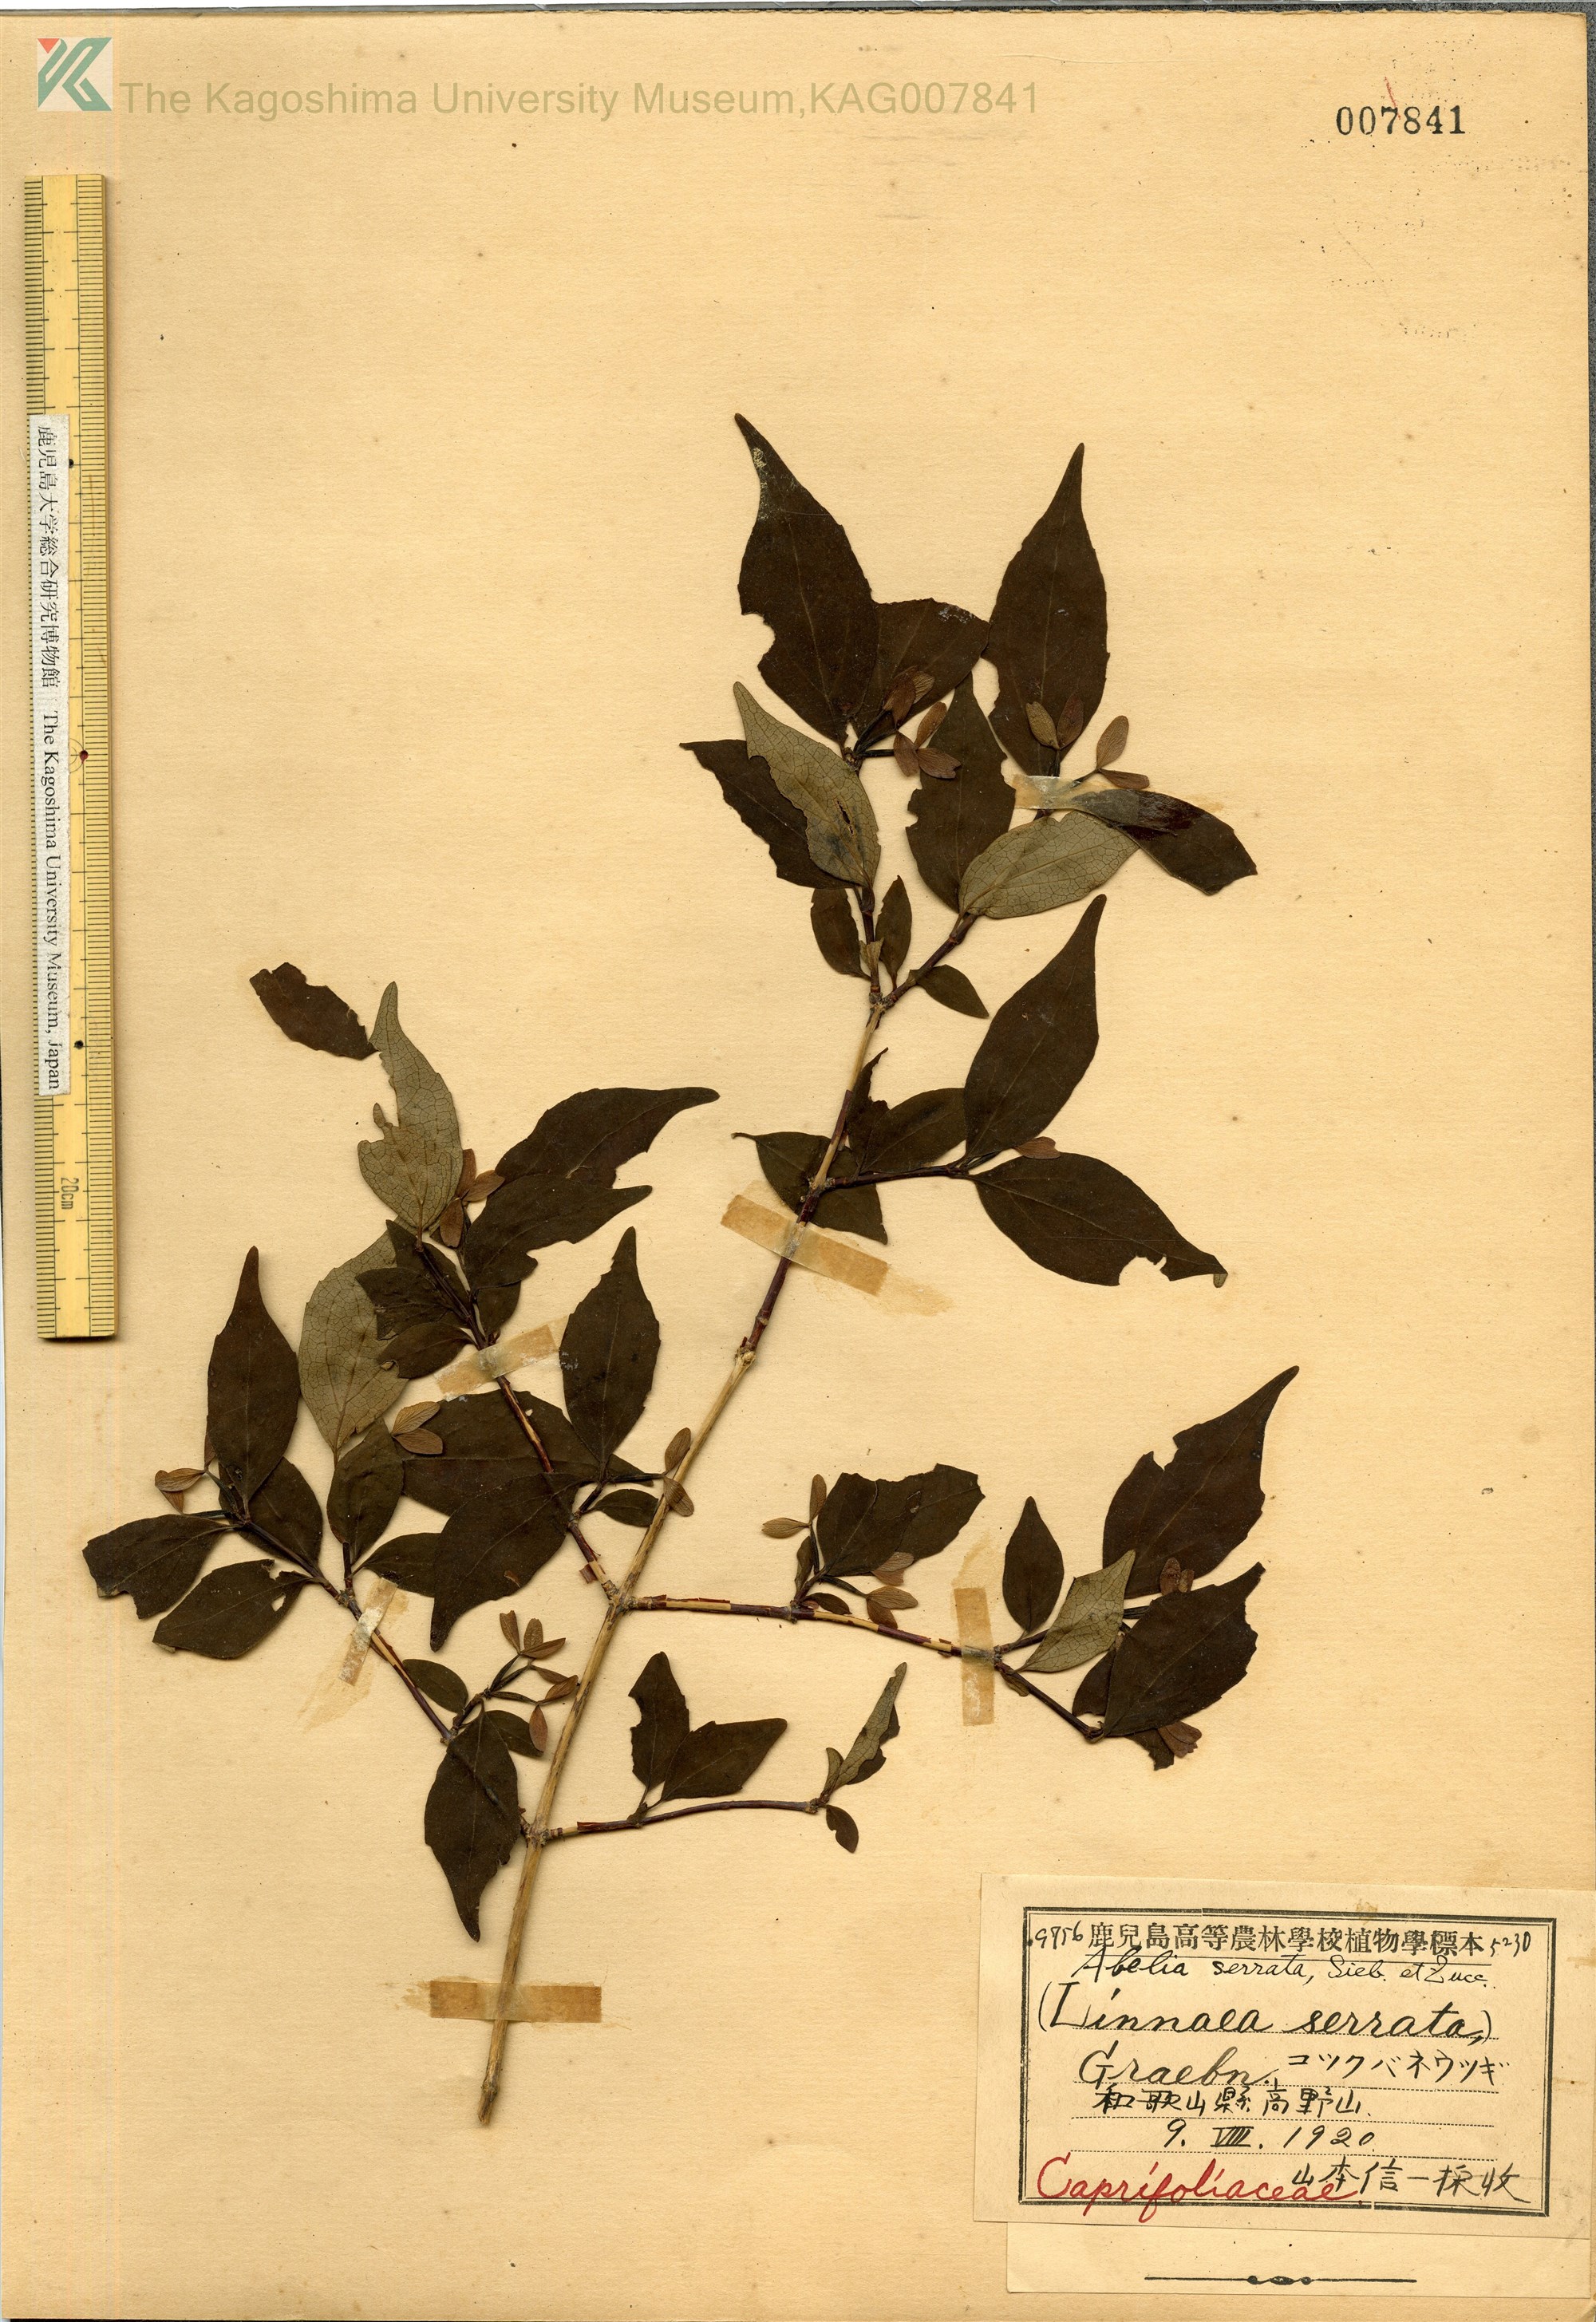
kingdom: Plantae
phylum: Tracheophyta
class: Magnoliopsida
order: Dipsacales
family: Caprifoliaceae
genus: Diabelia
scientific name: Diabelia serrata
